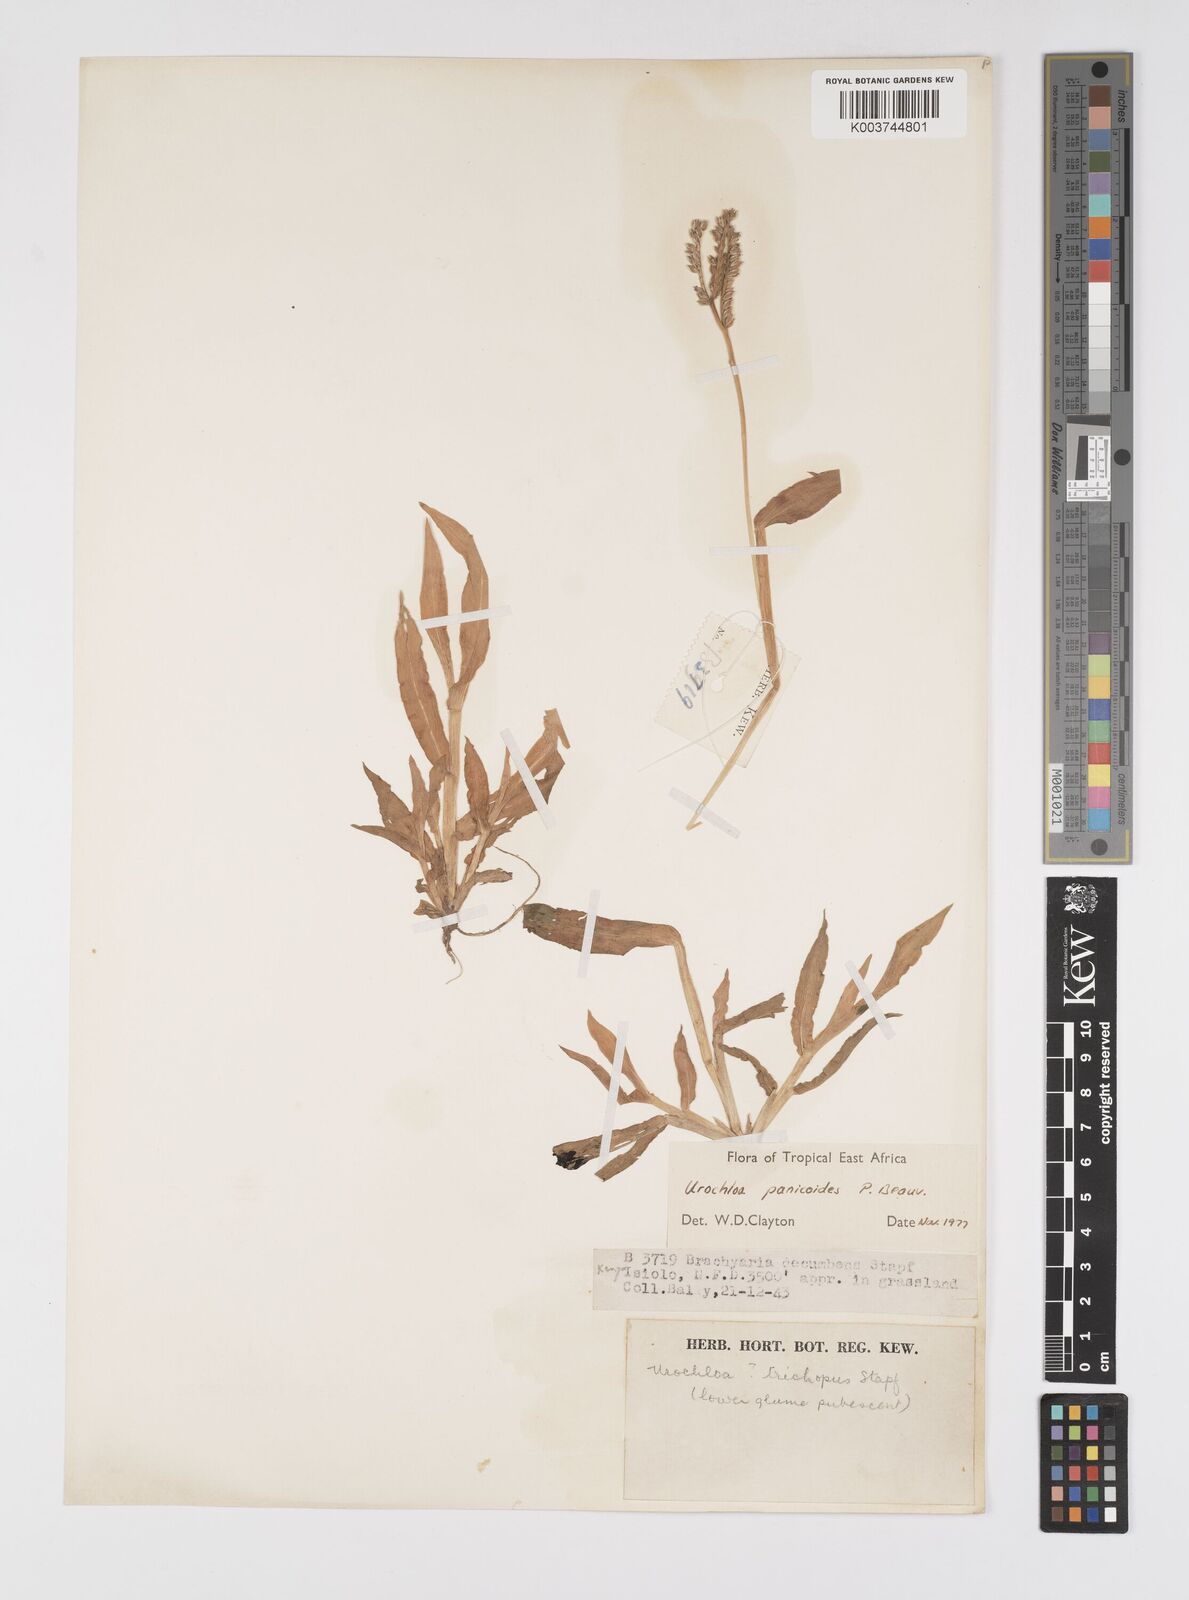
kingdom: Plantae
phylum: Tracheophyta
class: Liliopsida
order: Poales
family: Poaceae
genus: Urochloa
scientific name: Urochloa panicoides
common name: Sharp-flowered signal-grass
